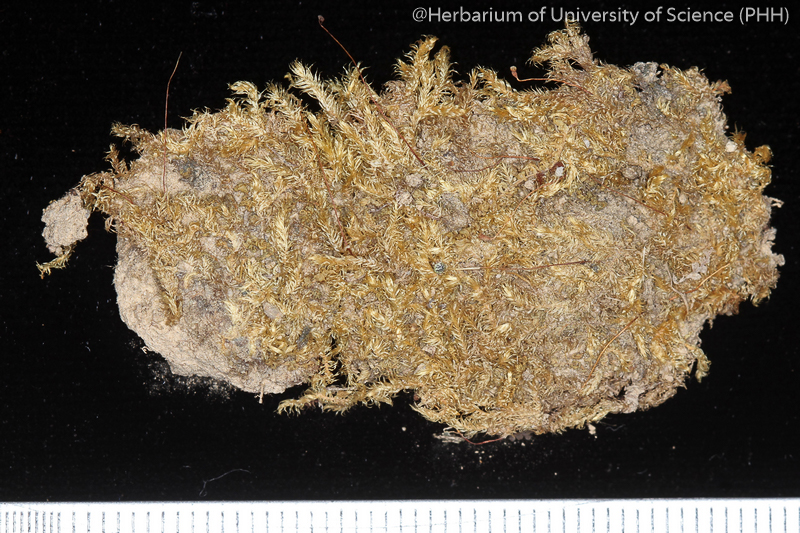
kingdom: Plantae
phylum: Bryophyta
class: Bryopsida
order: Hypnales
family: Hypnaceae
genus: Ectropothecium
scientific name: Ectropothecium monumentorum
